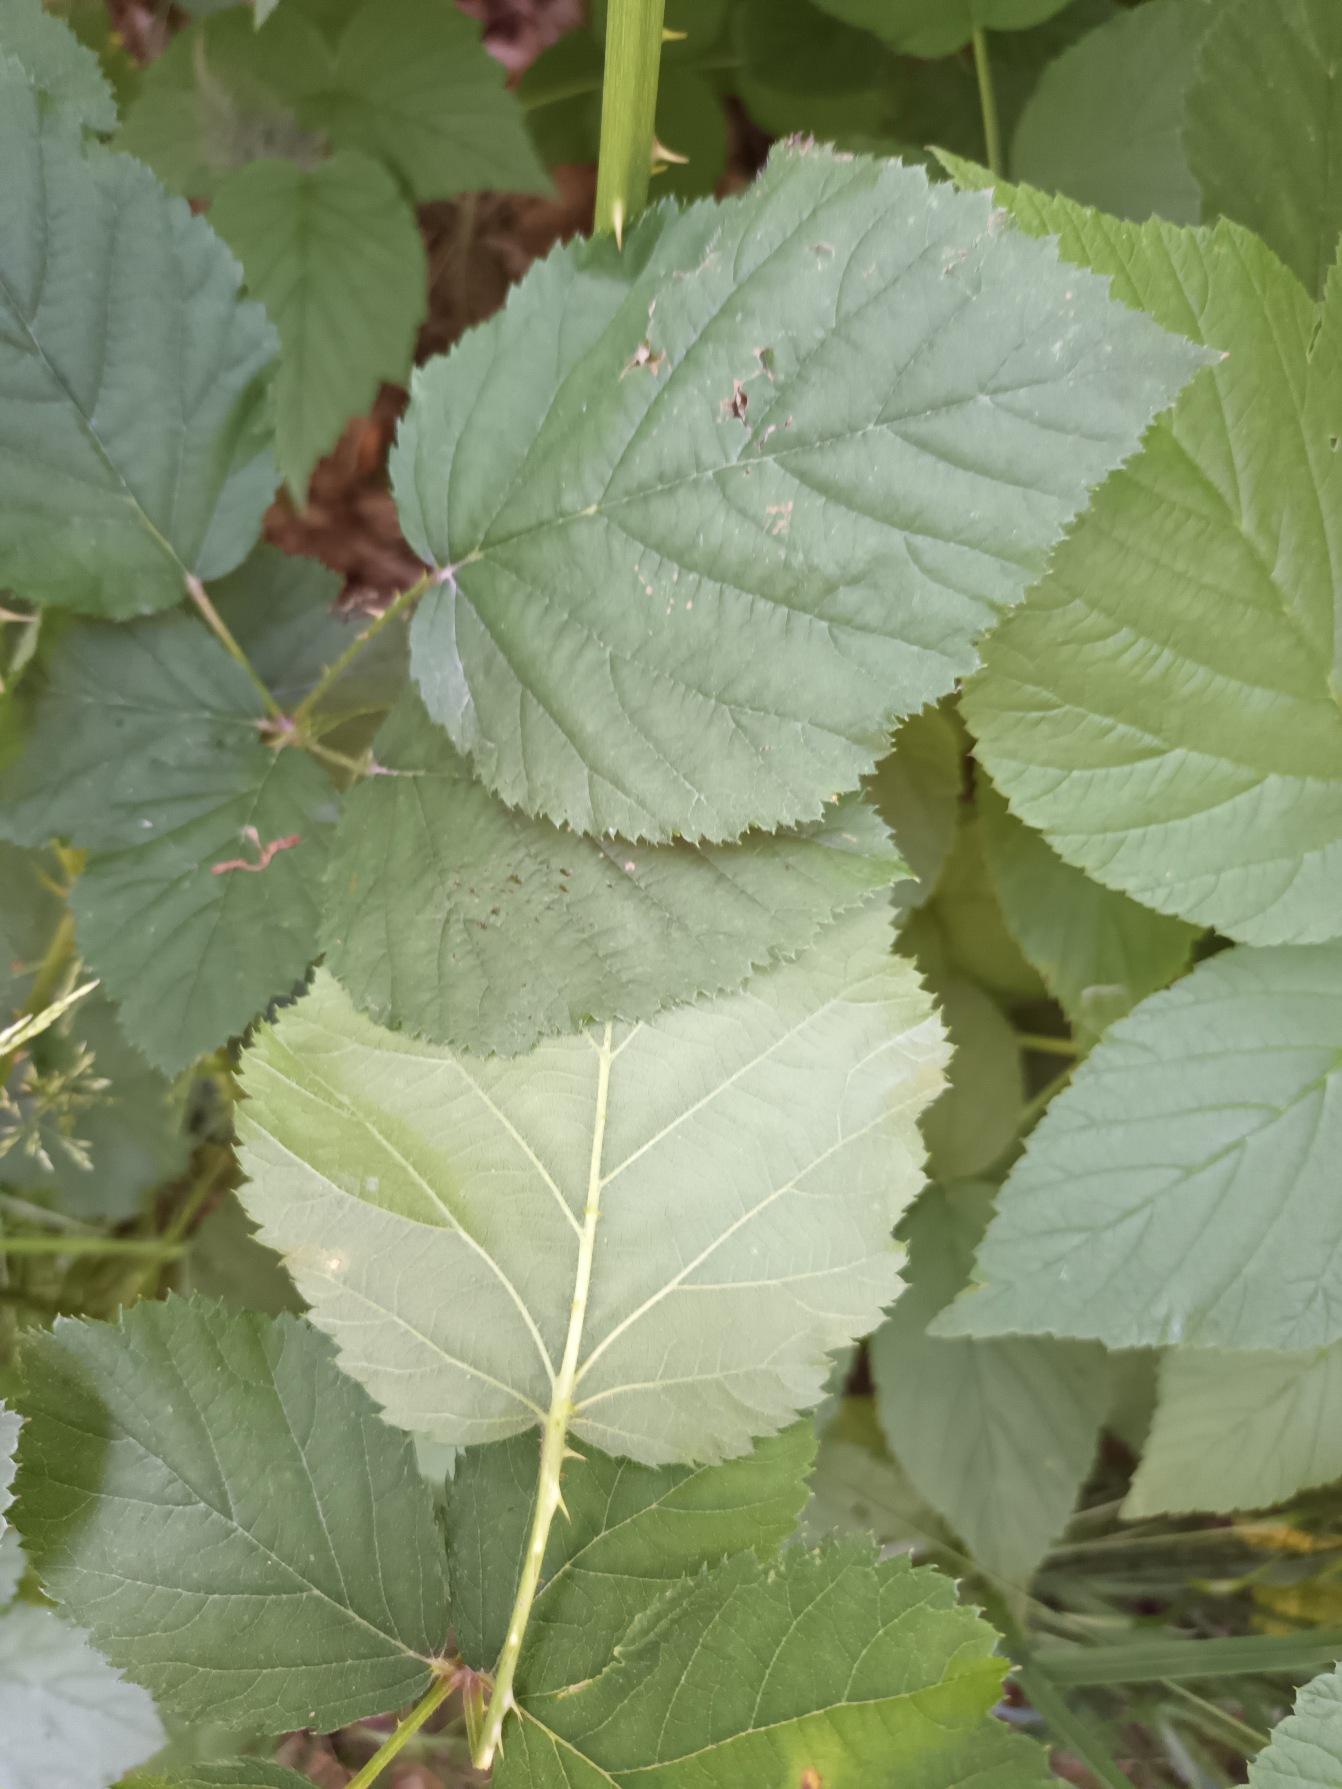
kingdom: Plantae
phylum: Tracheophyta
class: Magnoliopsida
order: Rosales
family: Rosaceae
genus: Rubus
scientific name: Rubus cardiophyllus
